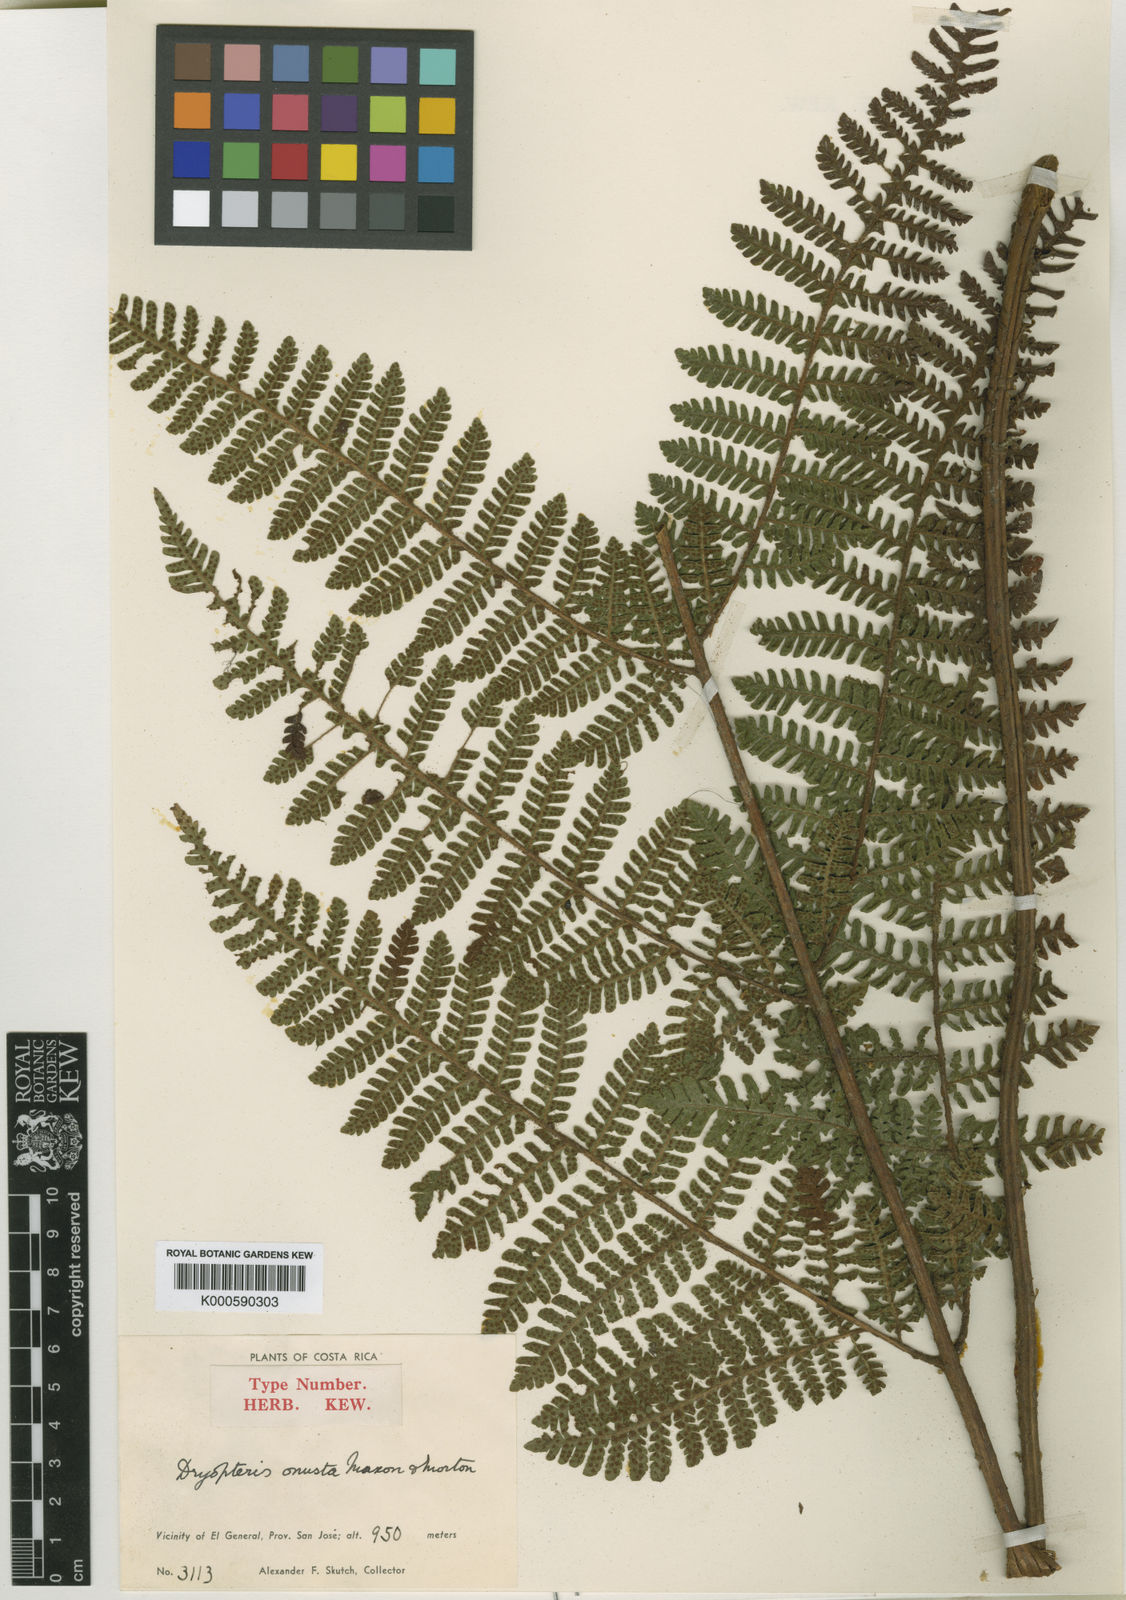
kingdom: Plantae
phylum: Tracheophyta
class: Polypodiopsida
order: Polypodiales
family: Dryopteridaceae
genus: Ctenitis
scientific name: Ctenitis
